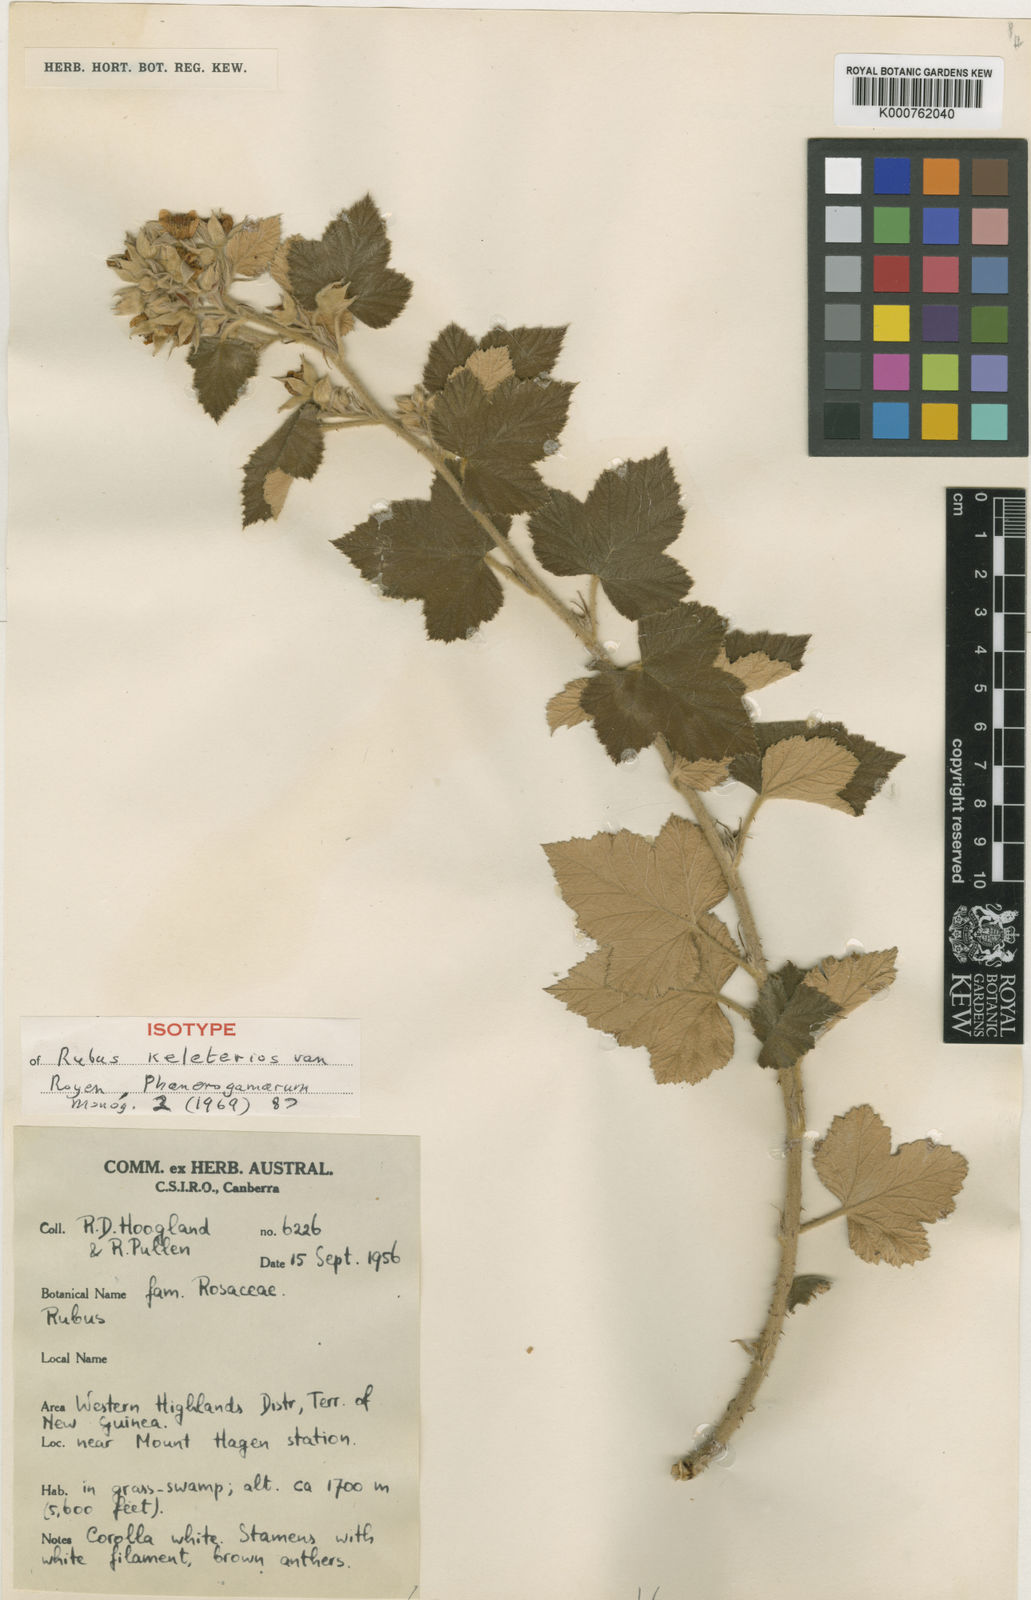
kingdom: Plantae
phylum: Tracheophyta
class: Magnoliopsida
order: Rosales
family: Rosaceae
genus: Rubus
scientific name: Rubus keleterios
